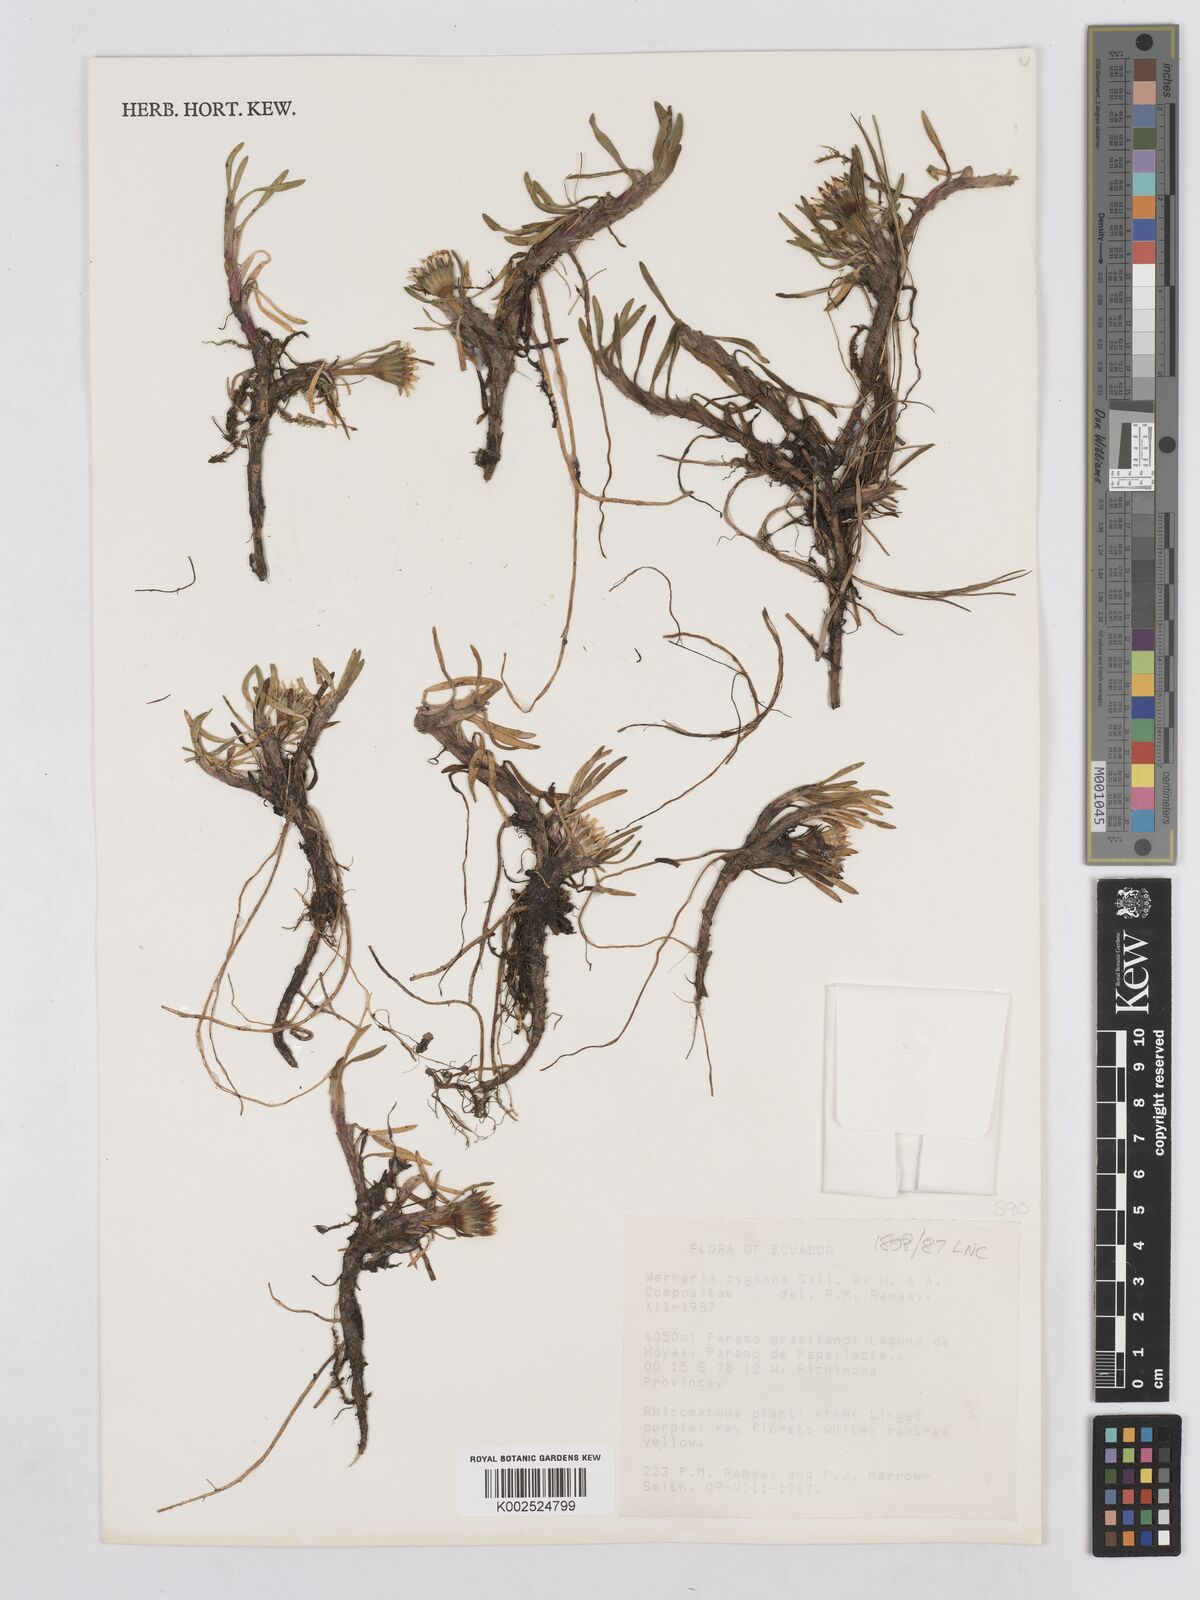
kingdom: Plantae
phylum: Tracheophyta
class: Magnoliopsida
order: Asterales
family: Asteraceae
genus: Rockhausenia
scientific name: Rockhausenia pygmaea
